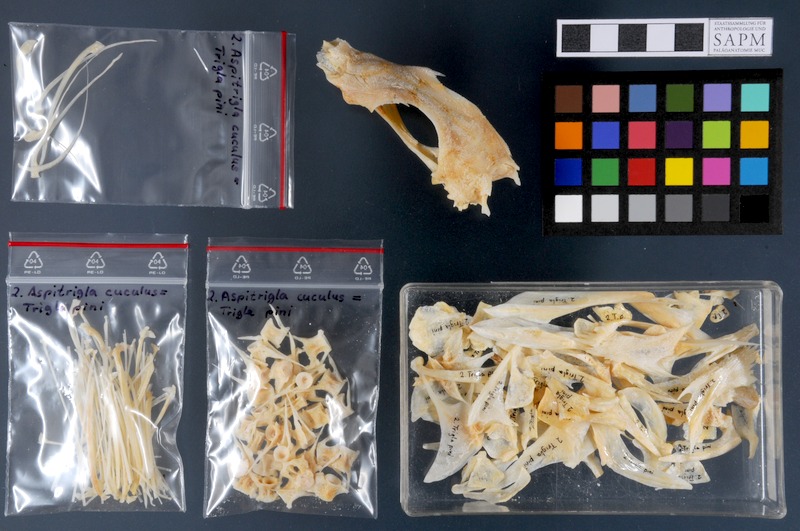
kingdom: Animalia
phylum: Chordata
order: Scorpaeniformes
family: Triglidae
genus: Chelidonichthys
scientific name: Chelidonichthys cuculus
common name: Red gurnard
